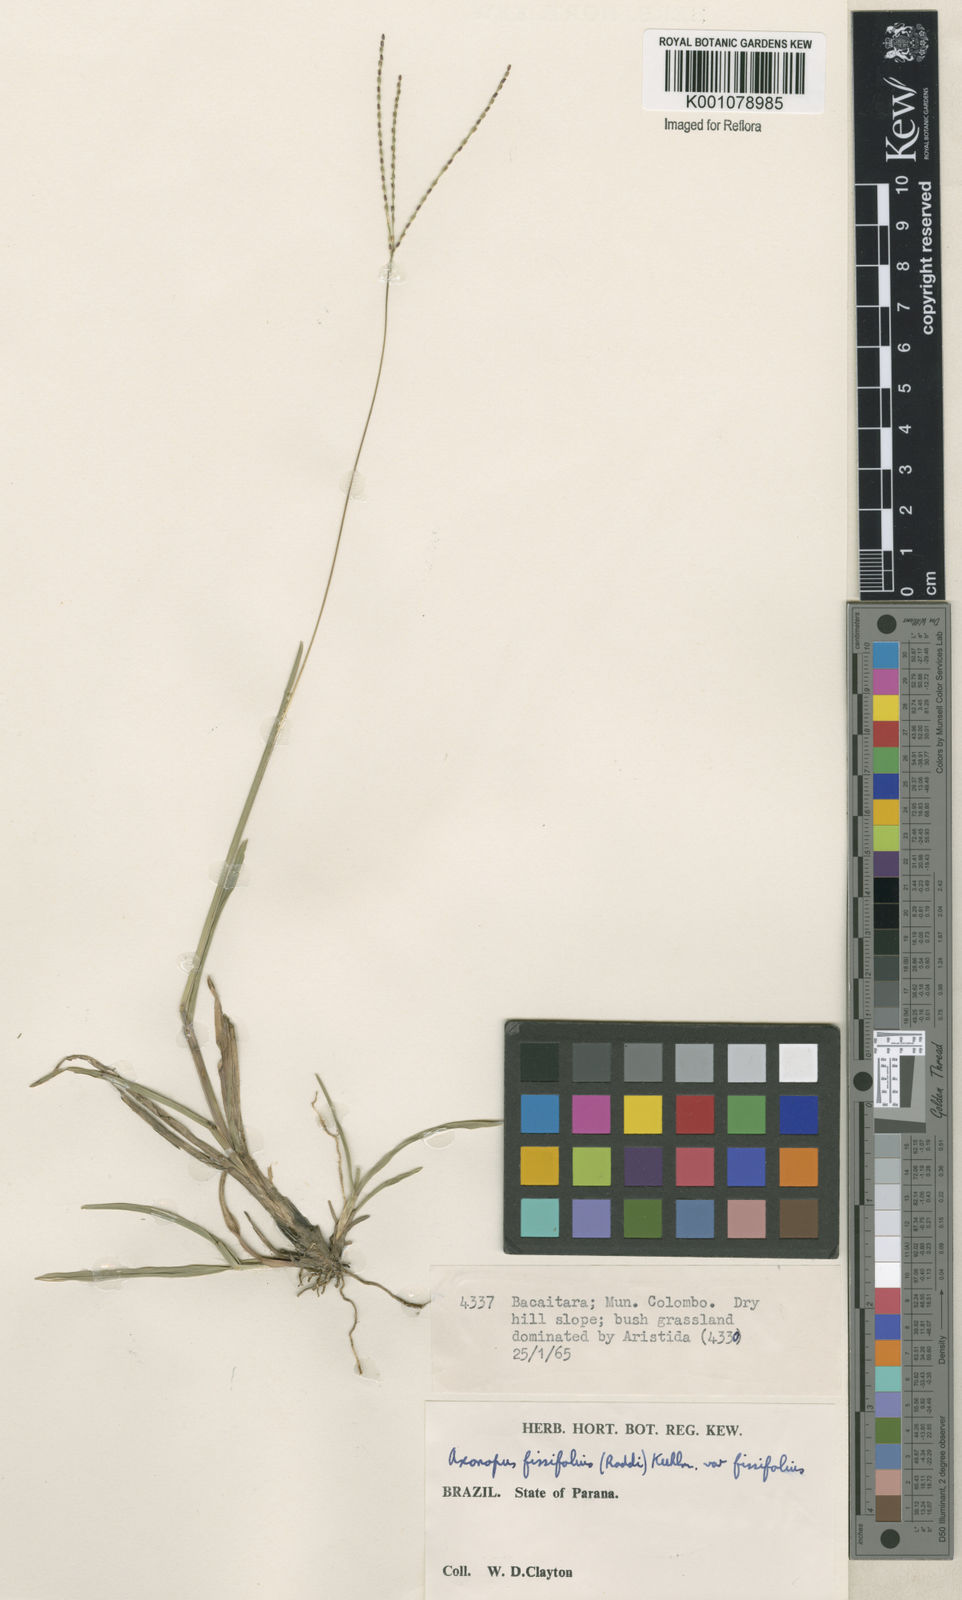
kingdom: Plantae
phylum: Tracheophyta
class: Liliopsida
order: Poales
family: Poaceae
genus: Axonopus
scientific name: Axonopus fissifolius
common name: Common carpetgrass
